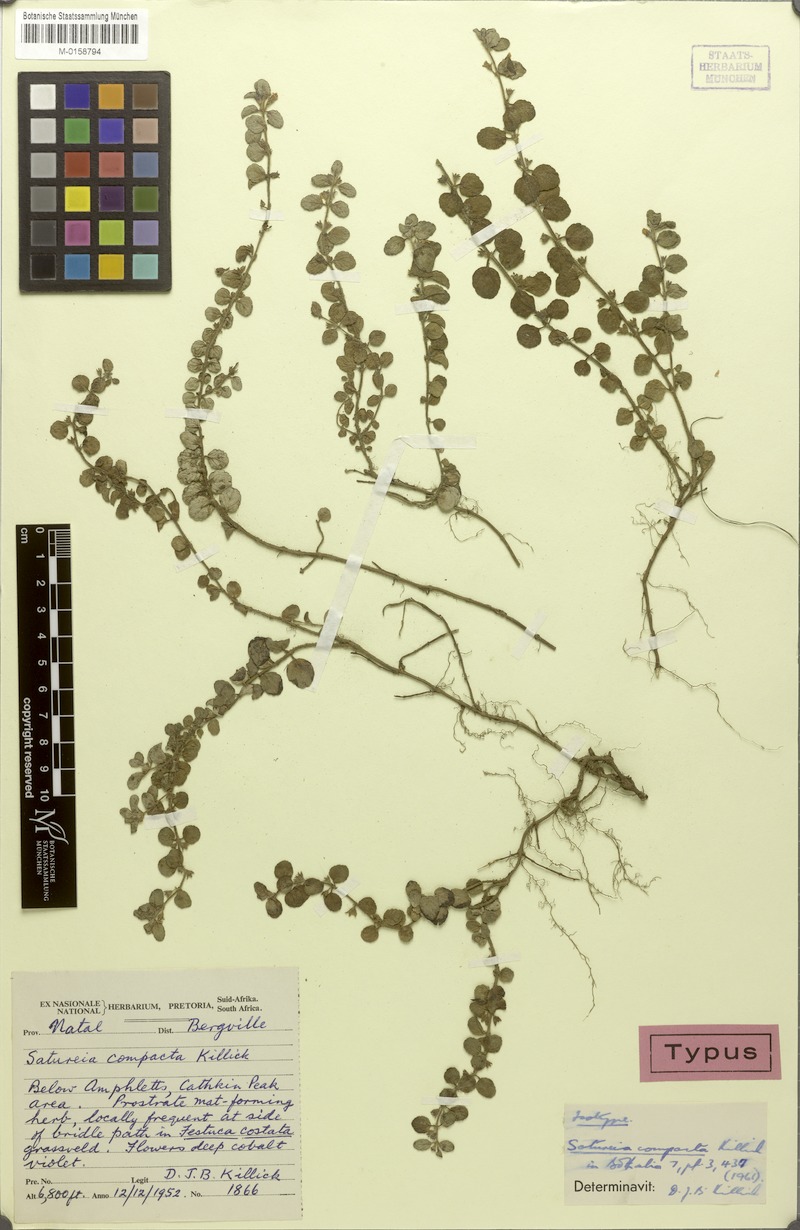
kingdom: Plantae
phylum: Tracheophyta
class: Magnoliopsida
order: Lamiales
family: Lamiaceae
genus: Killickia
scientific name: Killickia compacta
